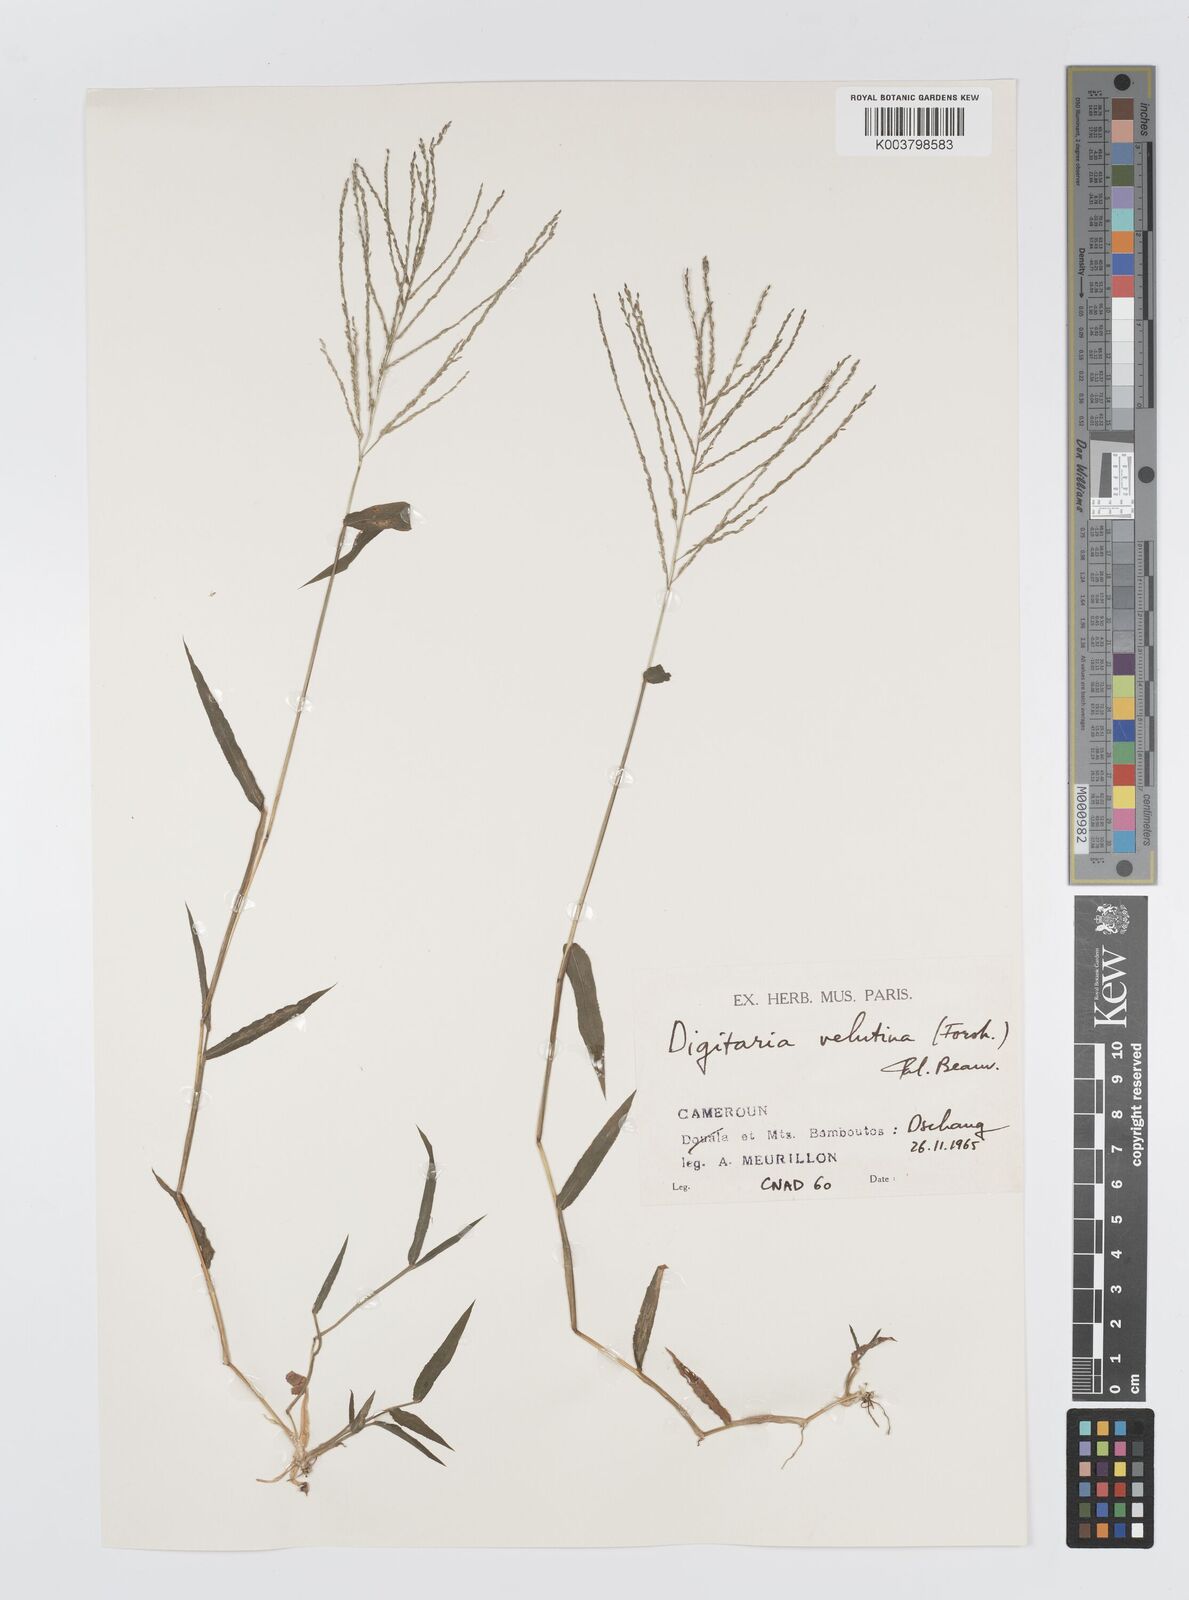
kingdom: Plantae
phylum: Tracheophyta
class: Liliopsida
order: Poales
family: Poaceae
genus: Digitaria
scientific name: Digitaria pearsonii
